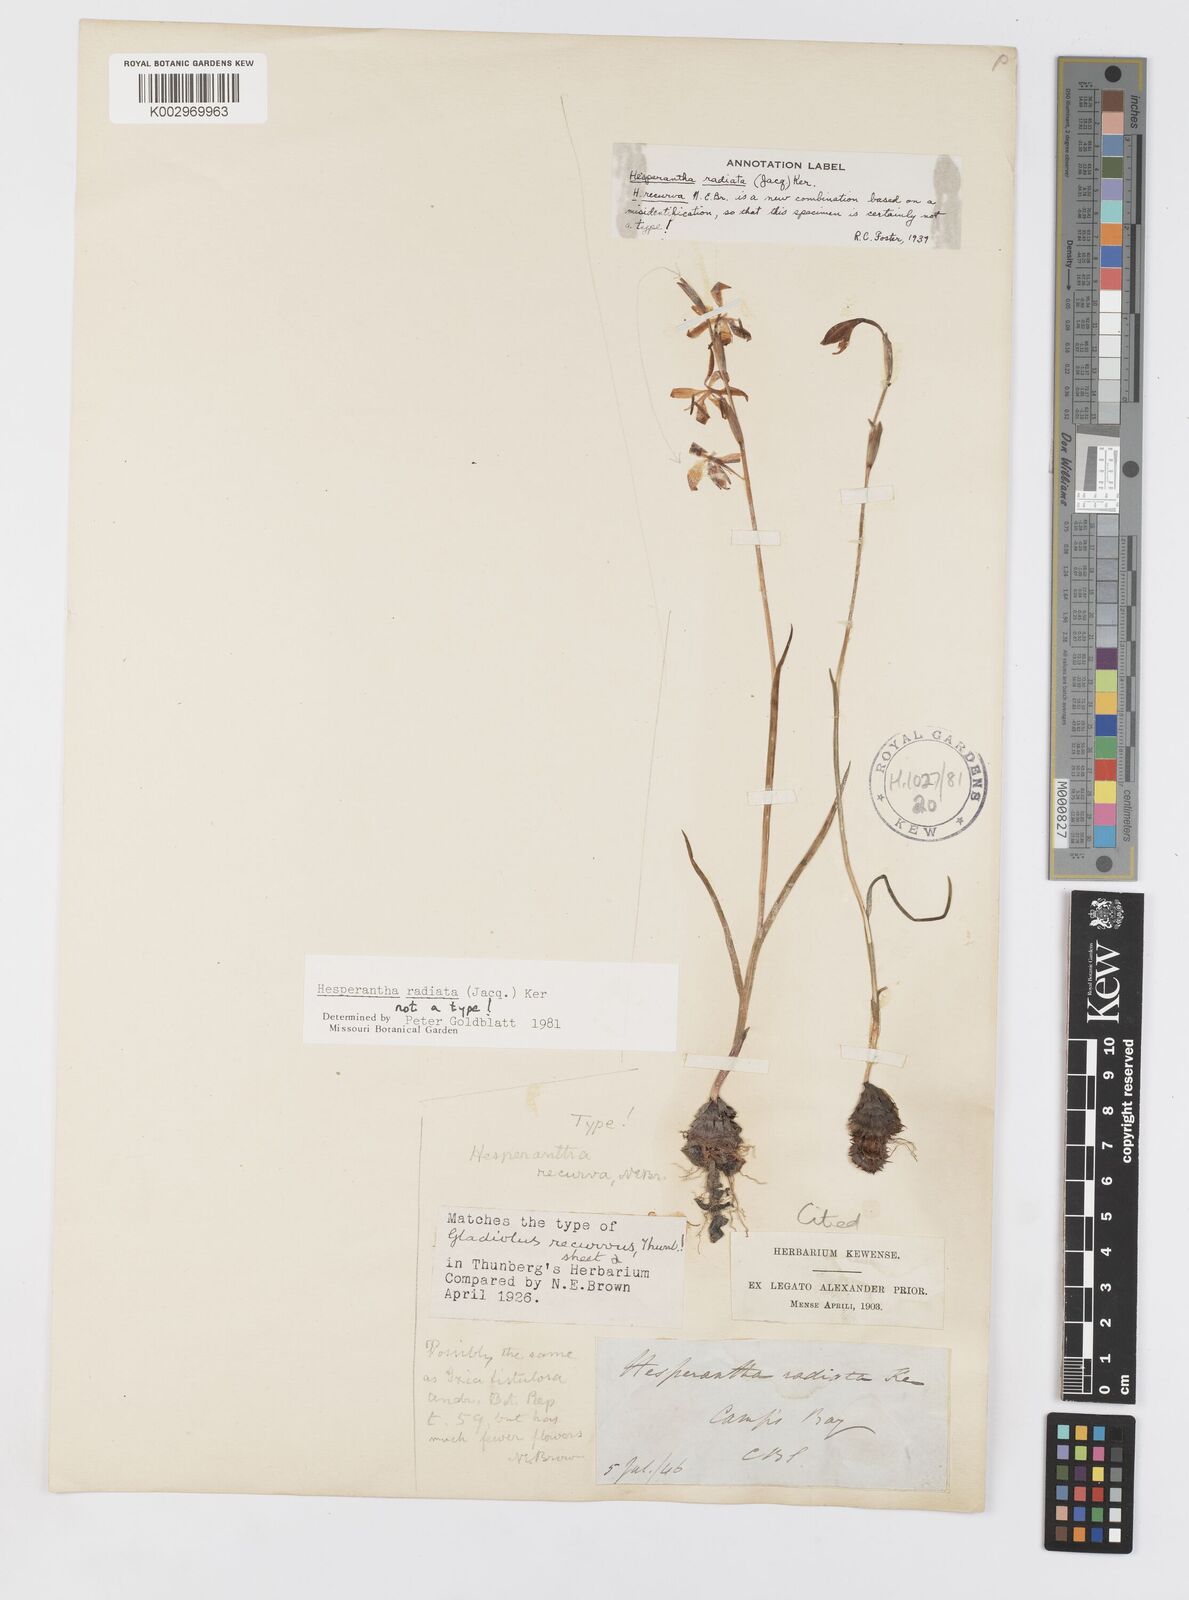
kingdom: Plantae
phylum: Tracheophyta
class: Liliopsida
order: Asparagales
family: Iridaceae
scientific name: Iridaceae
